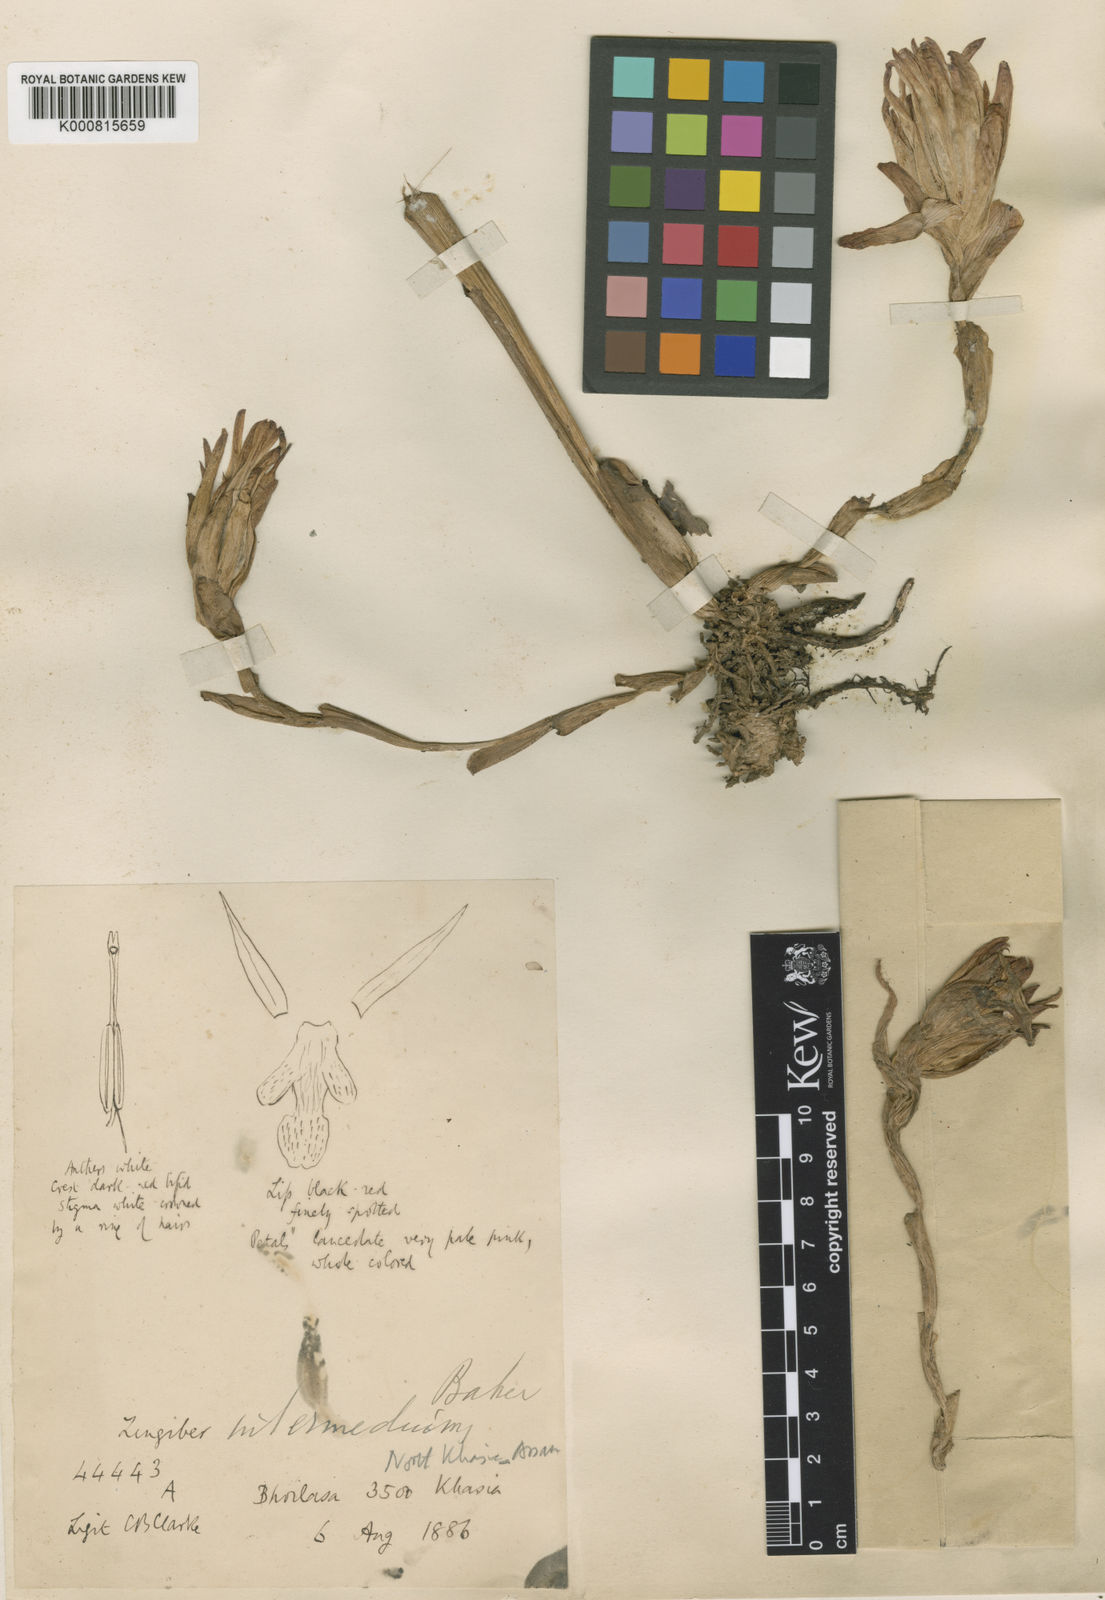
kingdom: Plantae
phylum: Tracheophyta
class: Liliopsida
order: Zingiberales
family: Zingiberaceae
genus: Zingiber
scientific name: Zingiber intermedium
